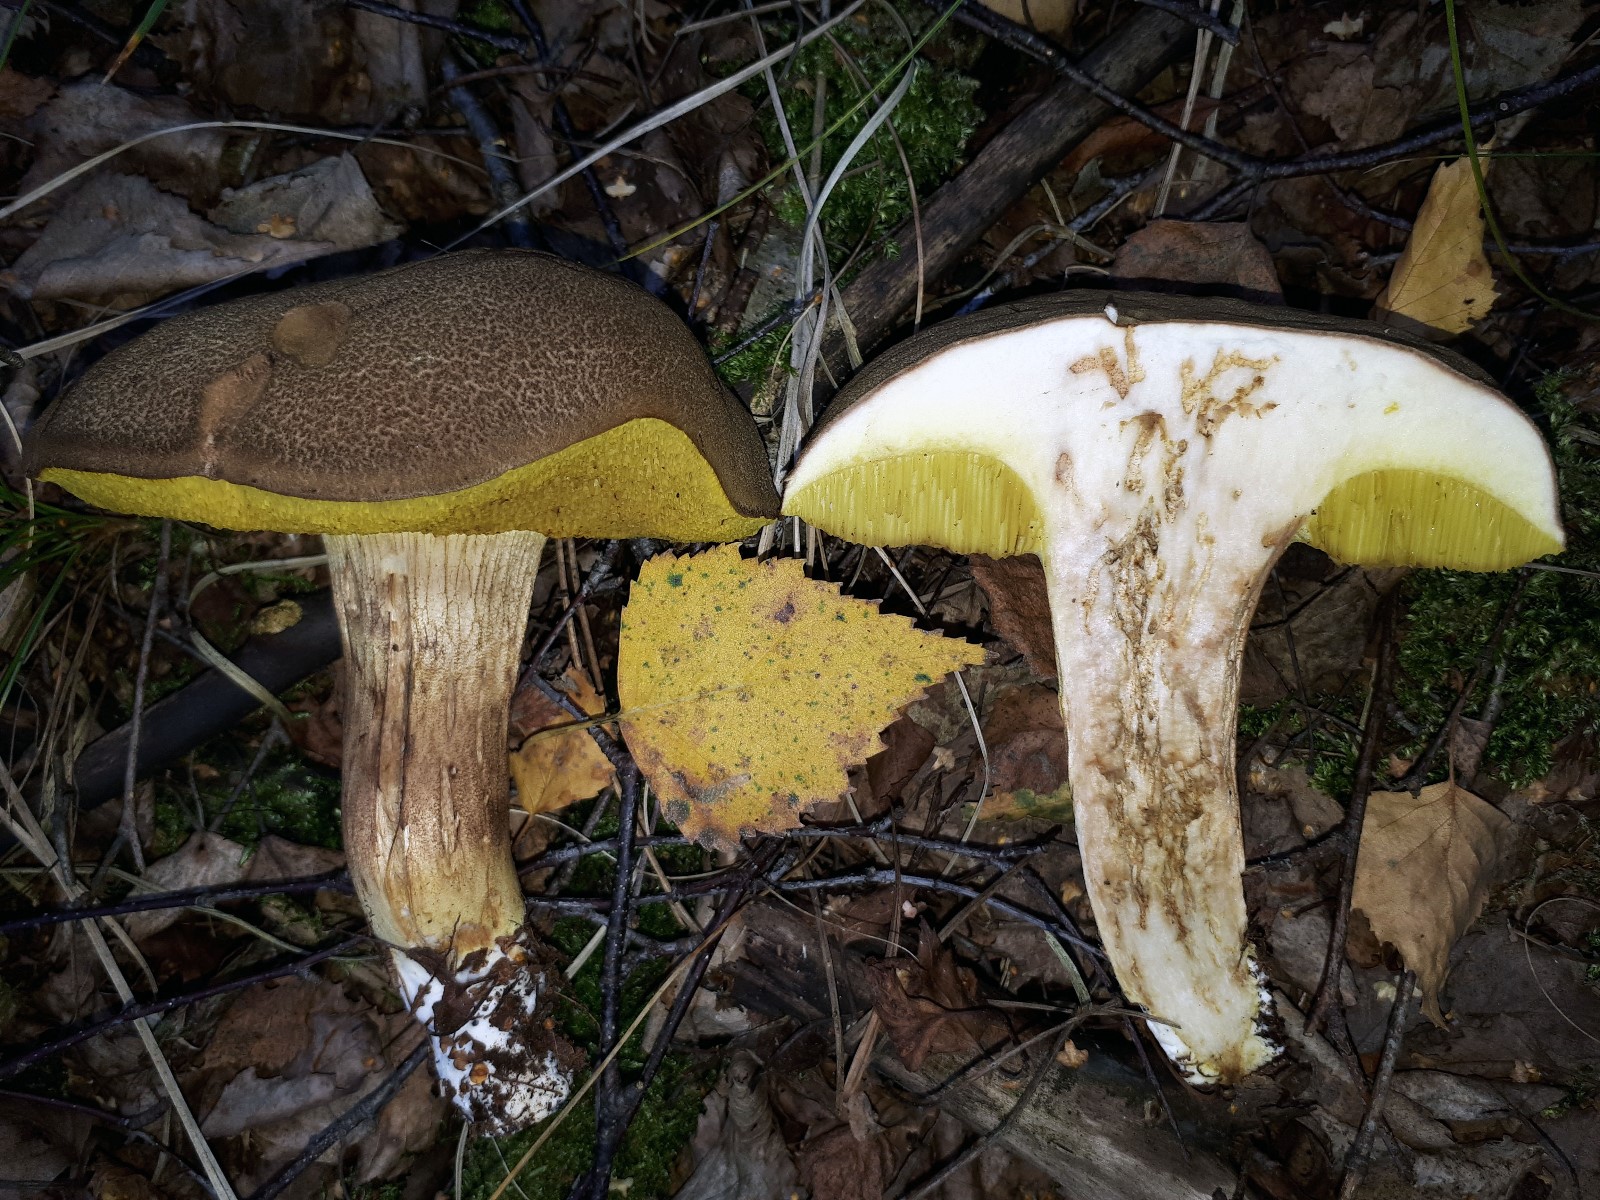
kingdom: Fungi
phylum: Basidiomycota
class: Agaricomycetes
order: Boletales
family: Boletaceae
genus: Xerocomus
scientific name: Xerocomus ferrugineus
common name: vaskeskinds-rørhat
